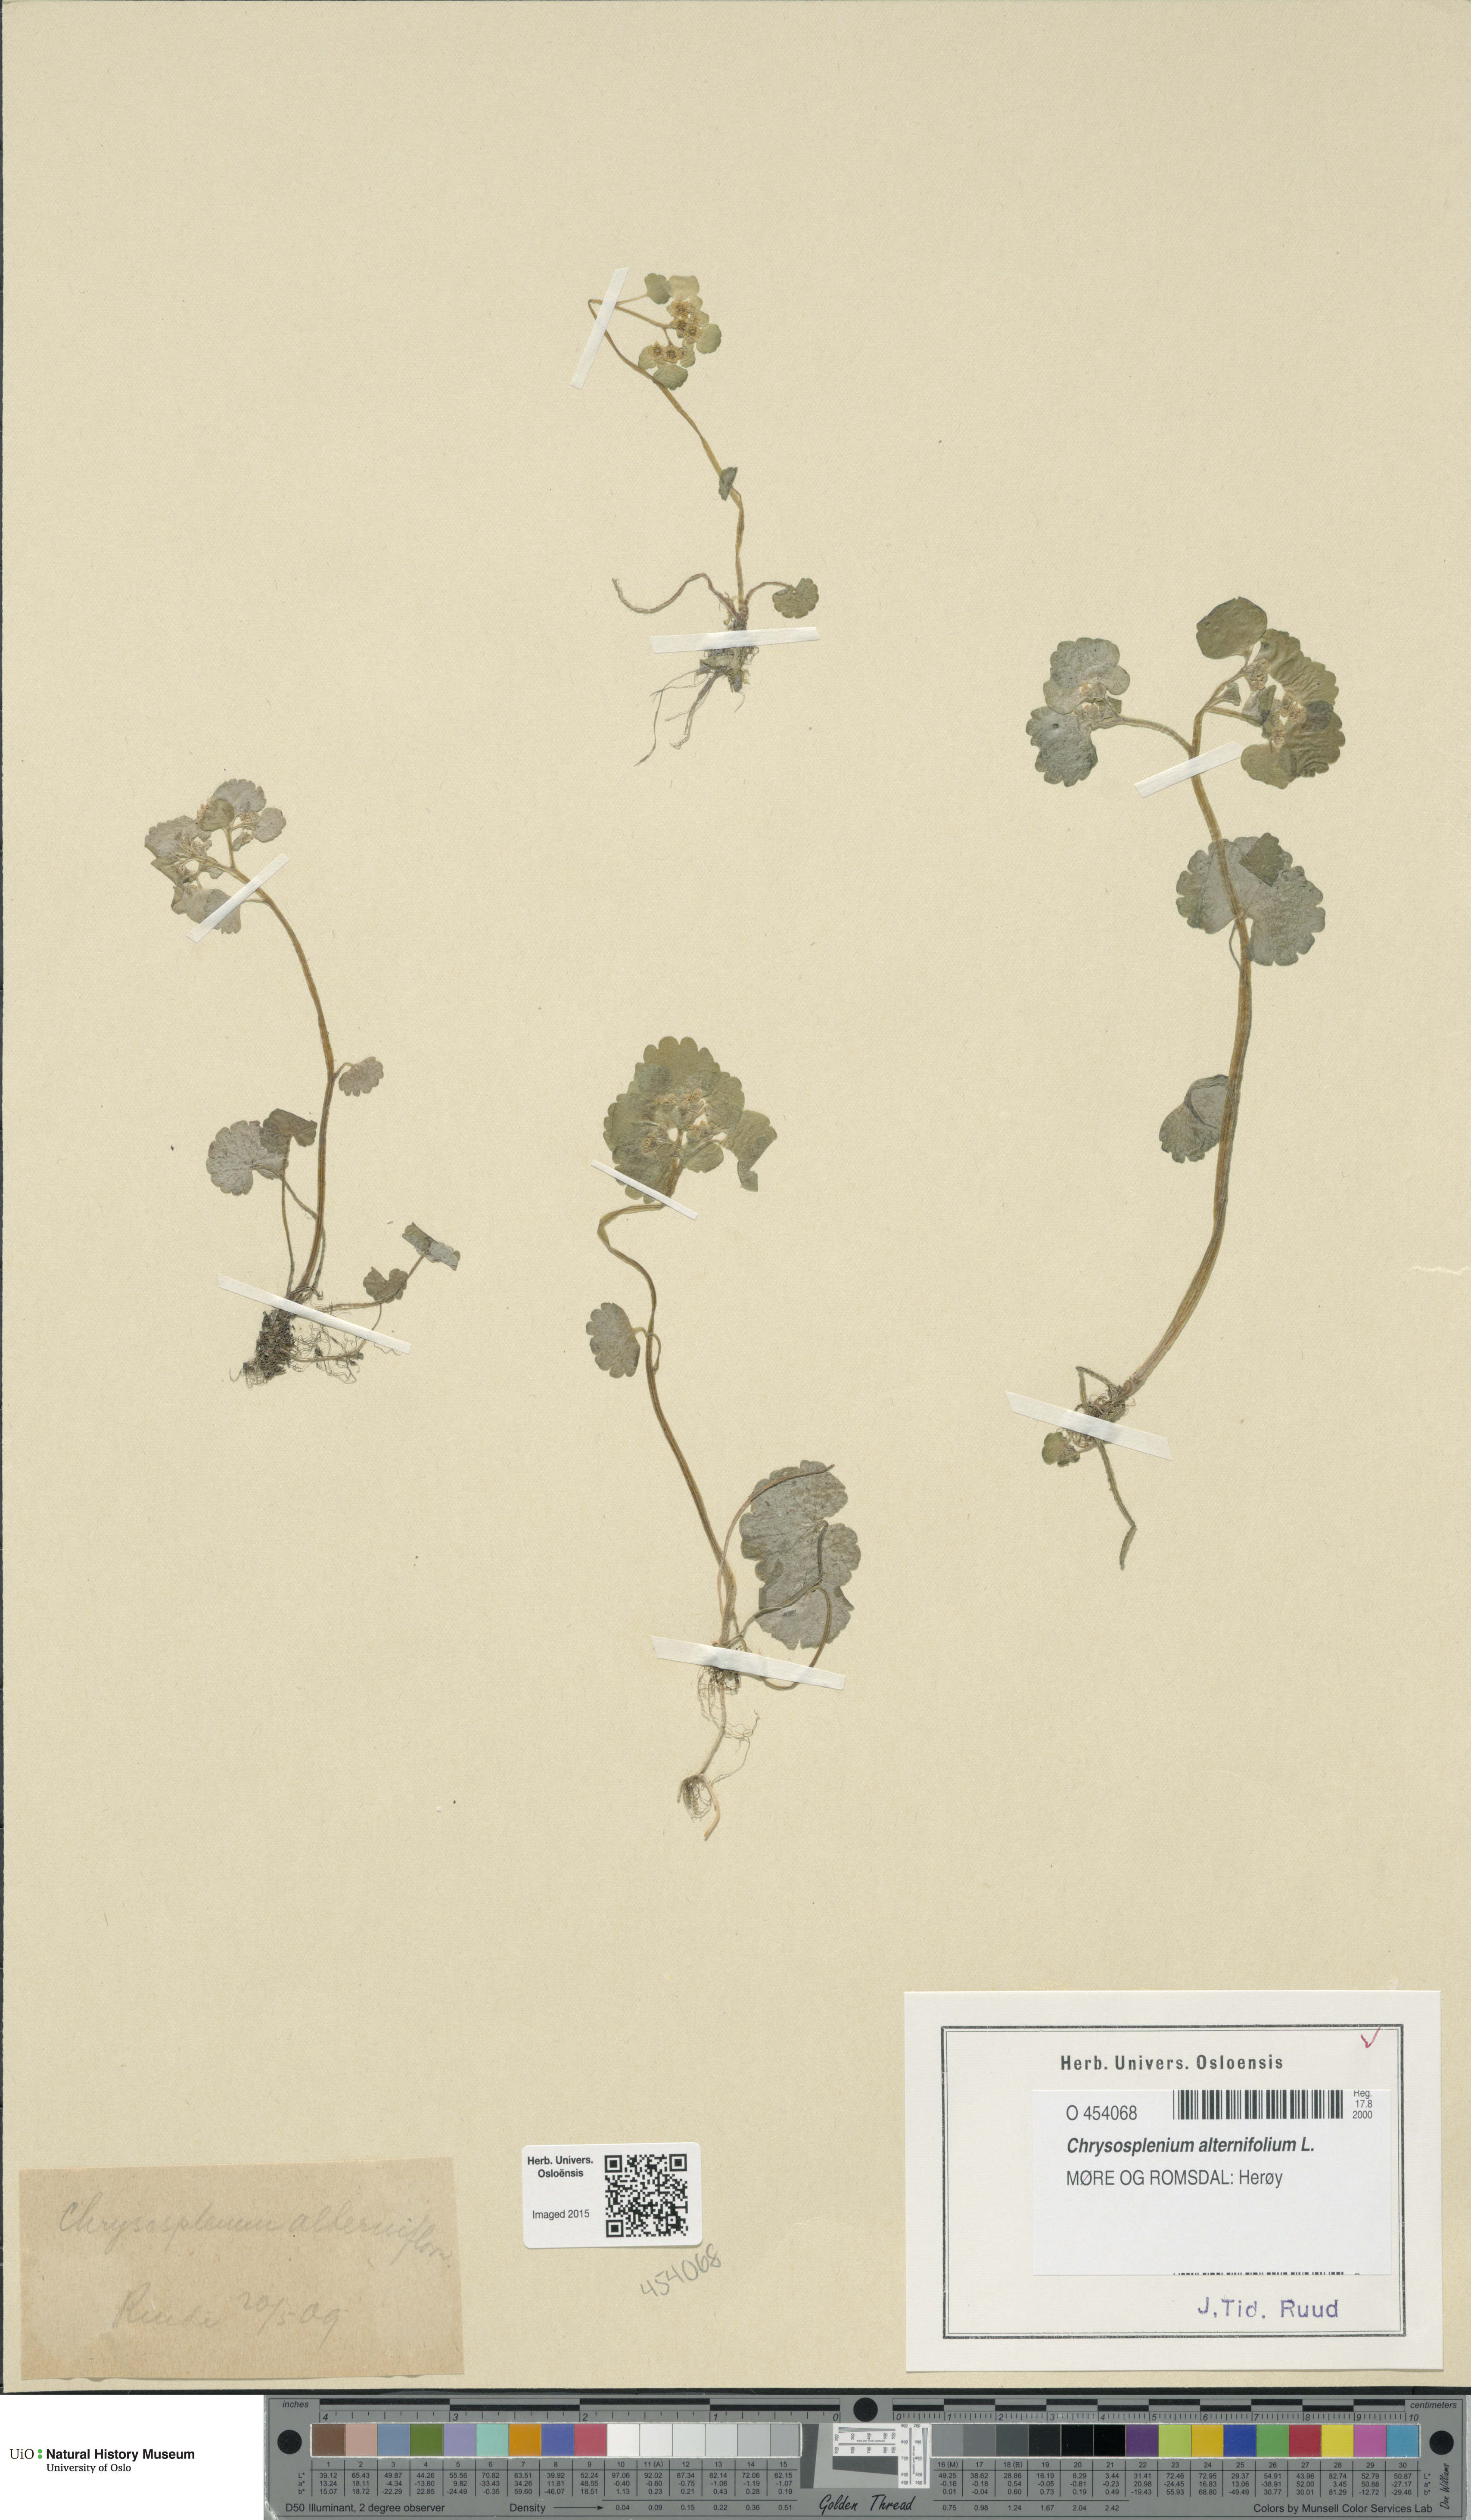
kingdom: Plantae
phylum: Tracheophyta
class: Magnoliopsida
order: Saxifragales
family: Saxifragaceae
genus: Chrysosplenium
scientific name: Chrysosplenium alternifolium
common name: Alternate-leaved golden-saxifrage
